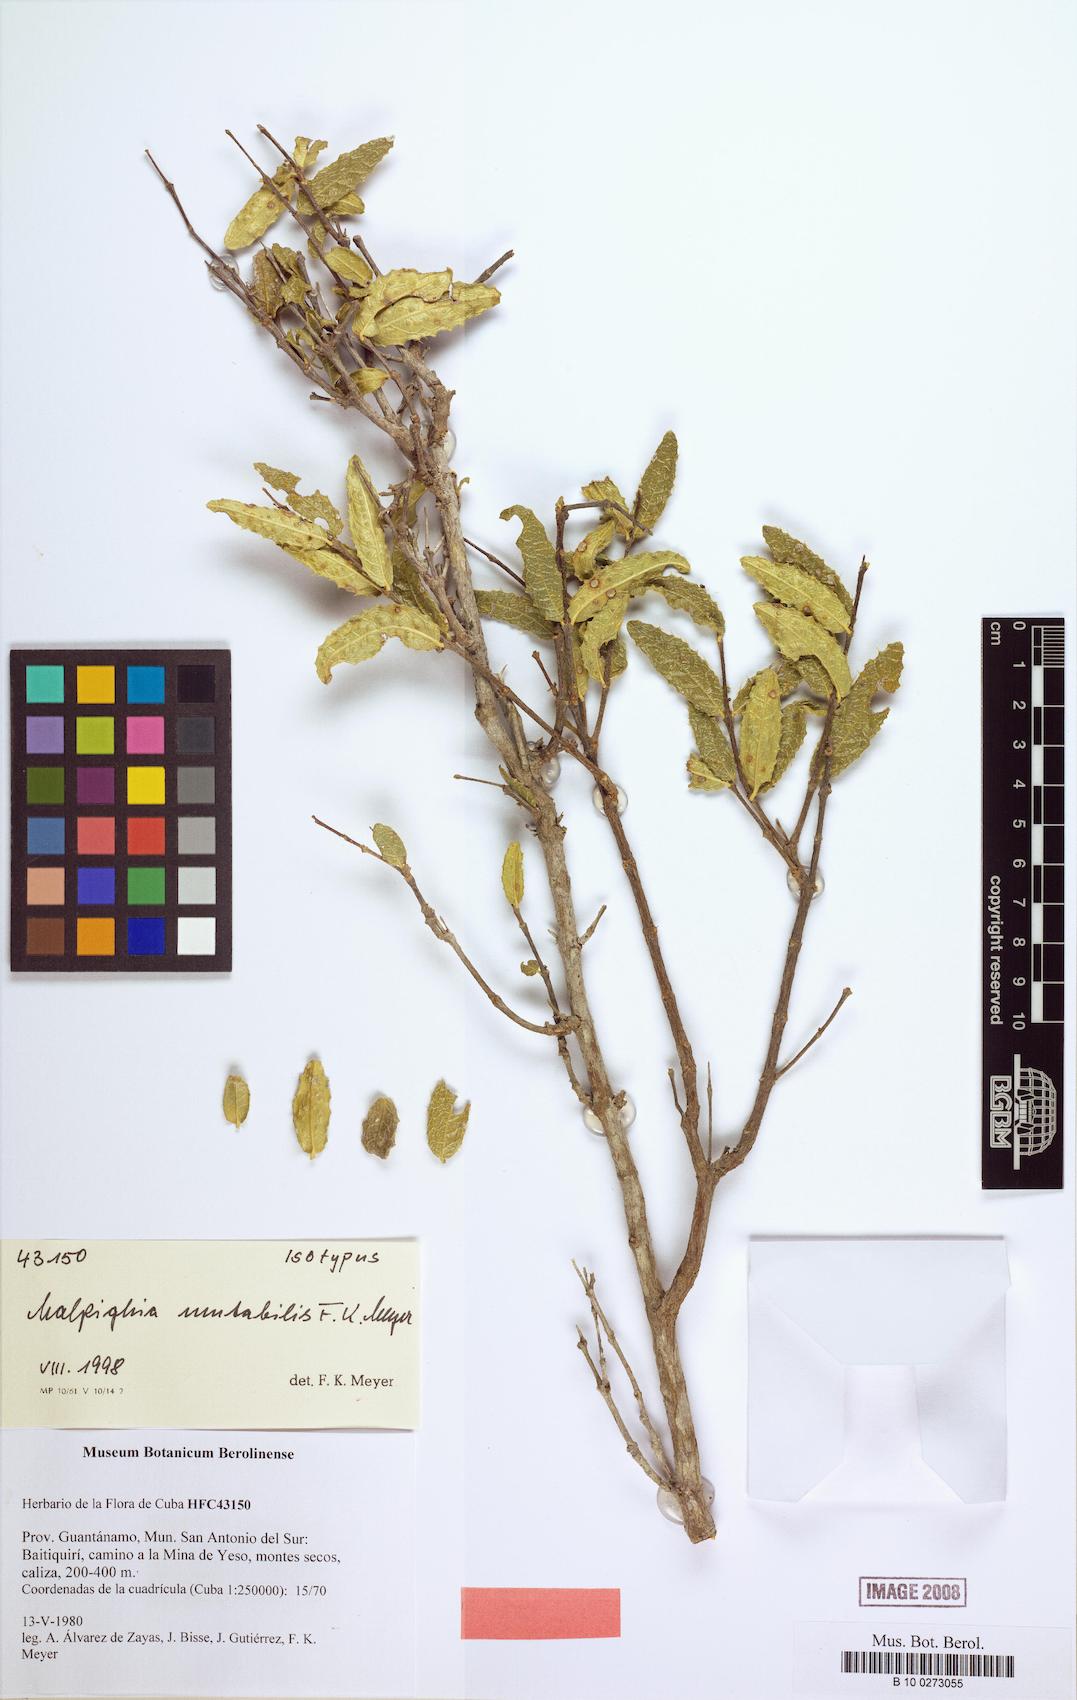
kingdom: Plantae
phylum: Tracheophyta
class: Magnoliopsida
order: Malpighiales
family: Malpighiaceae
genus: Malpighia
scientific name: Malpighia mutabilis
